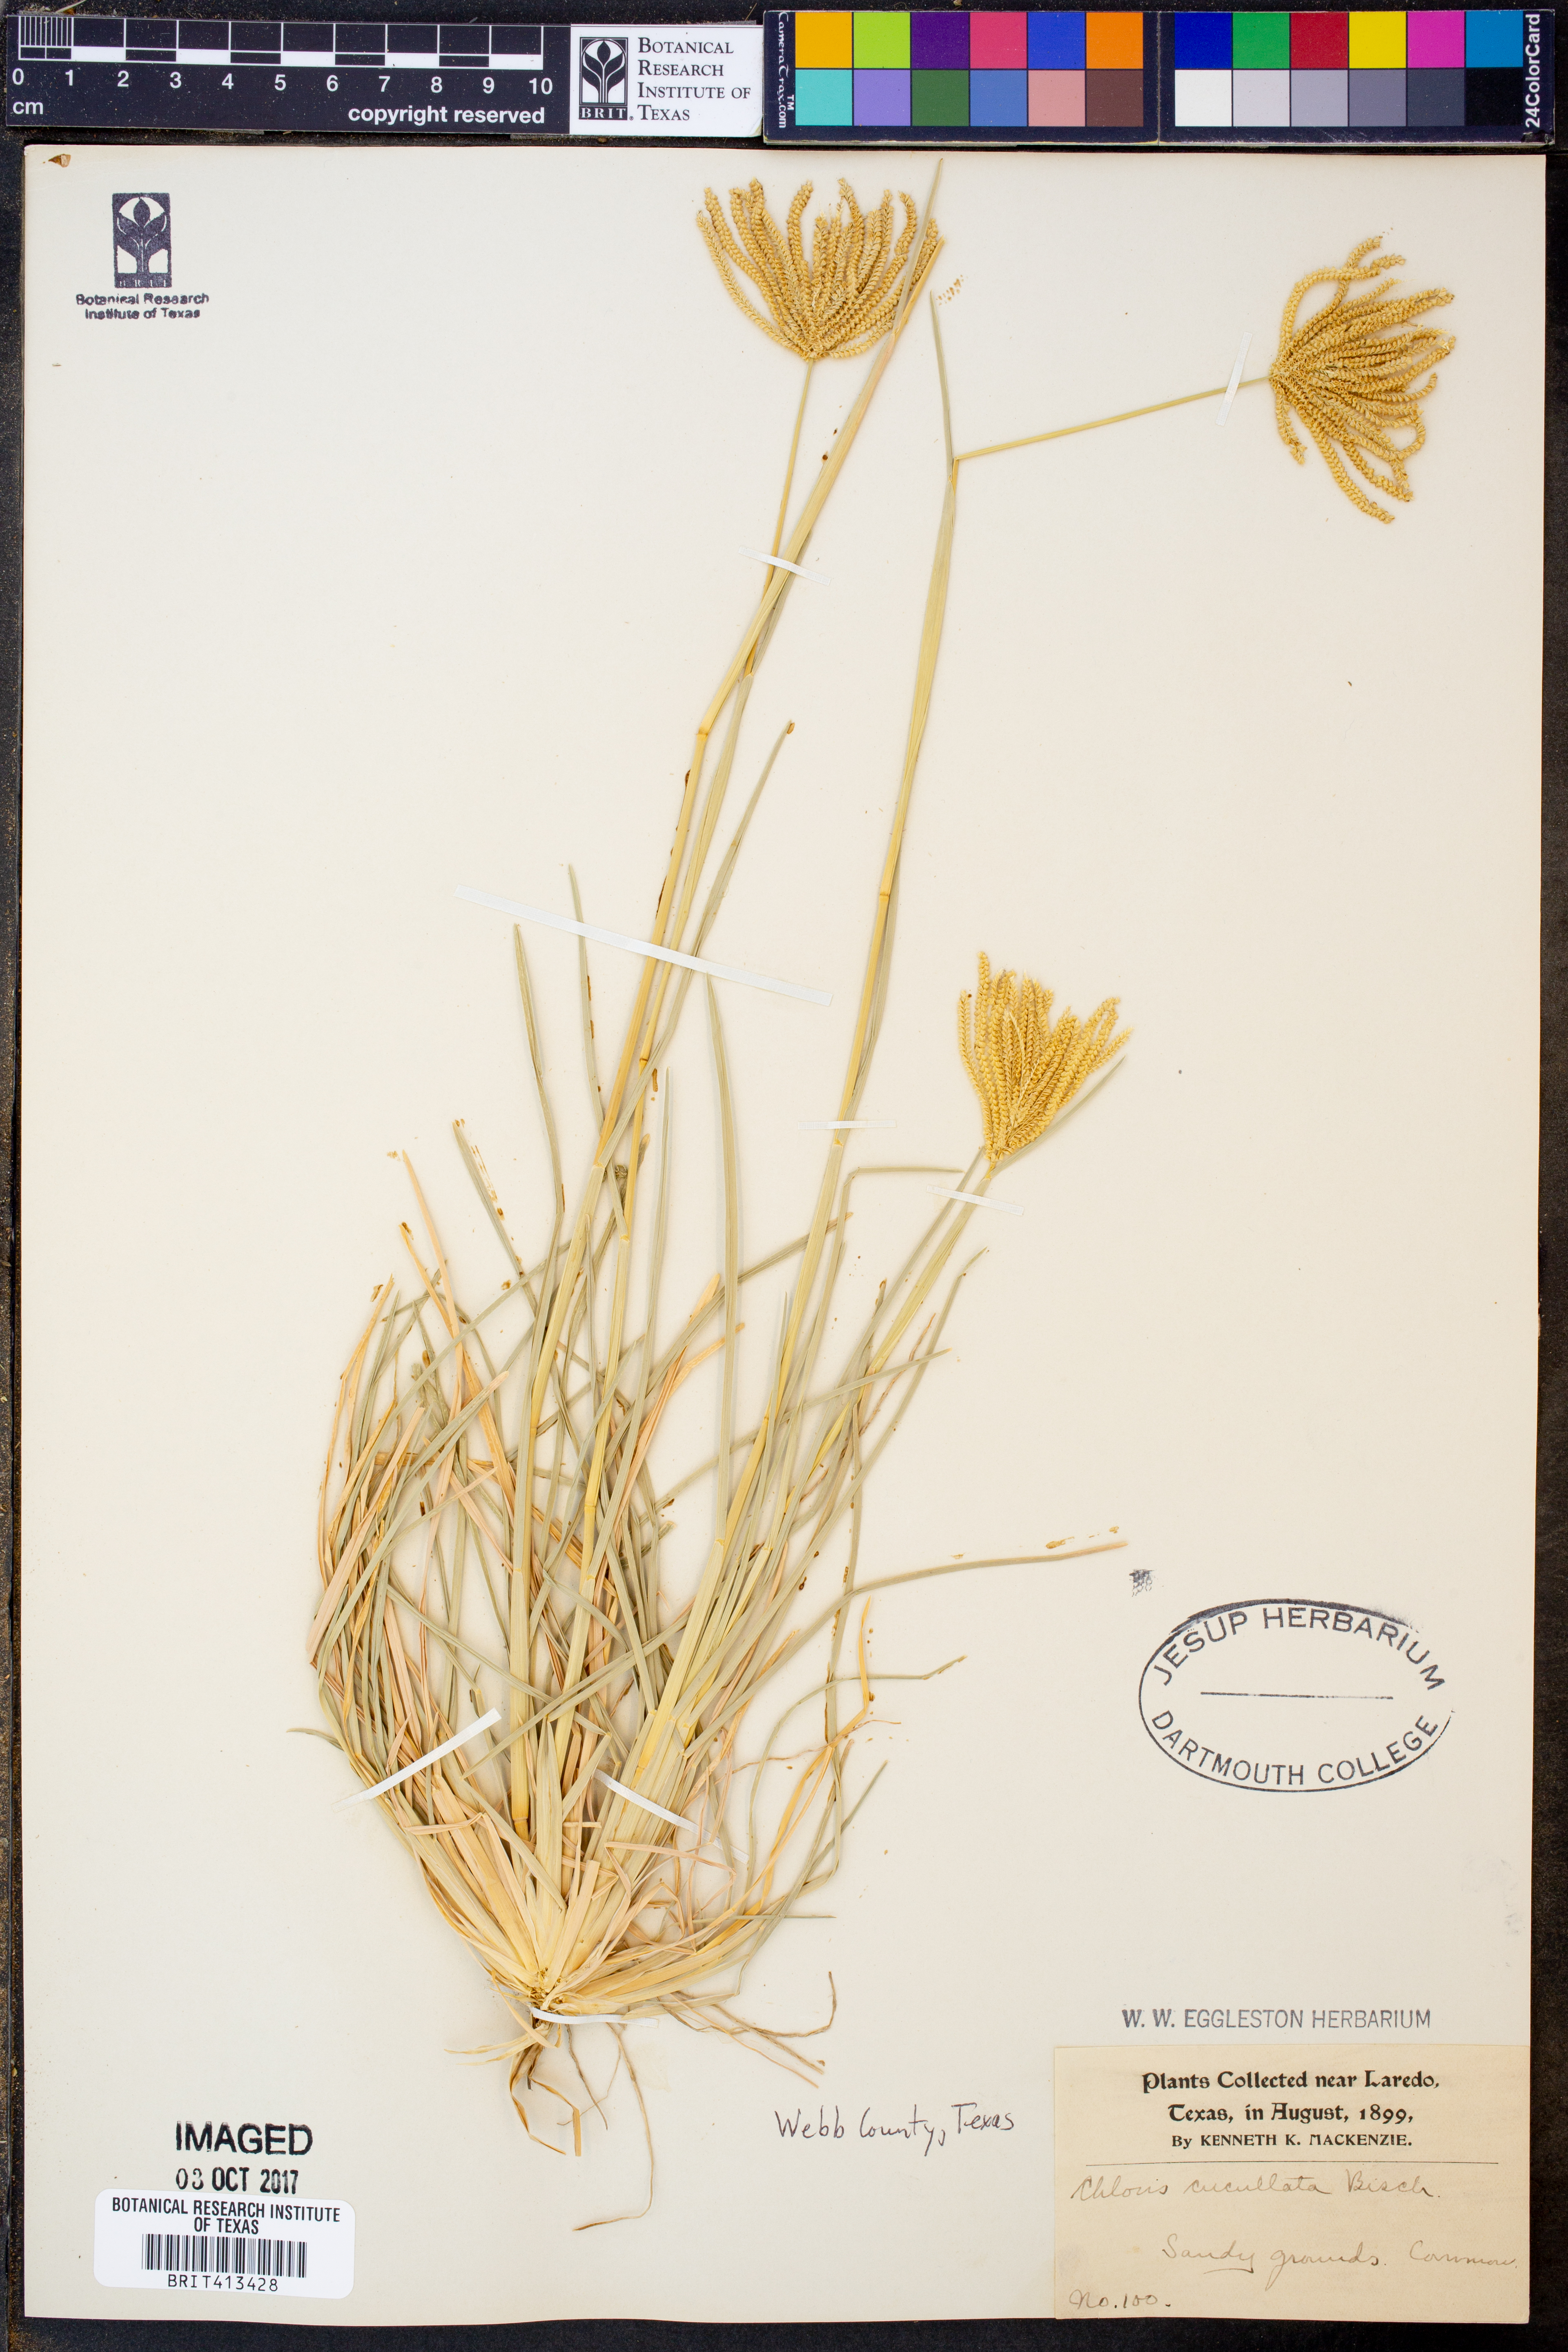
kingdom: Plantae
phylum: Tracheophyta
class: Liliopsida
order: Poales
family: Poaceae
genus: Chloris
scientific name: Chloris cucullata
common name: Hooded windmill grass
